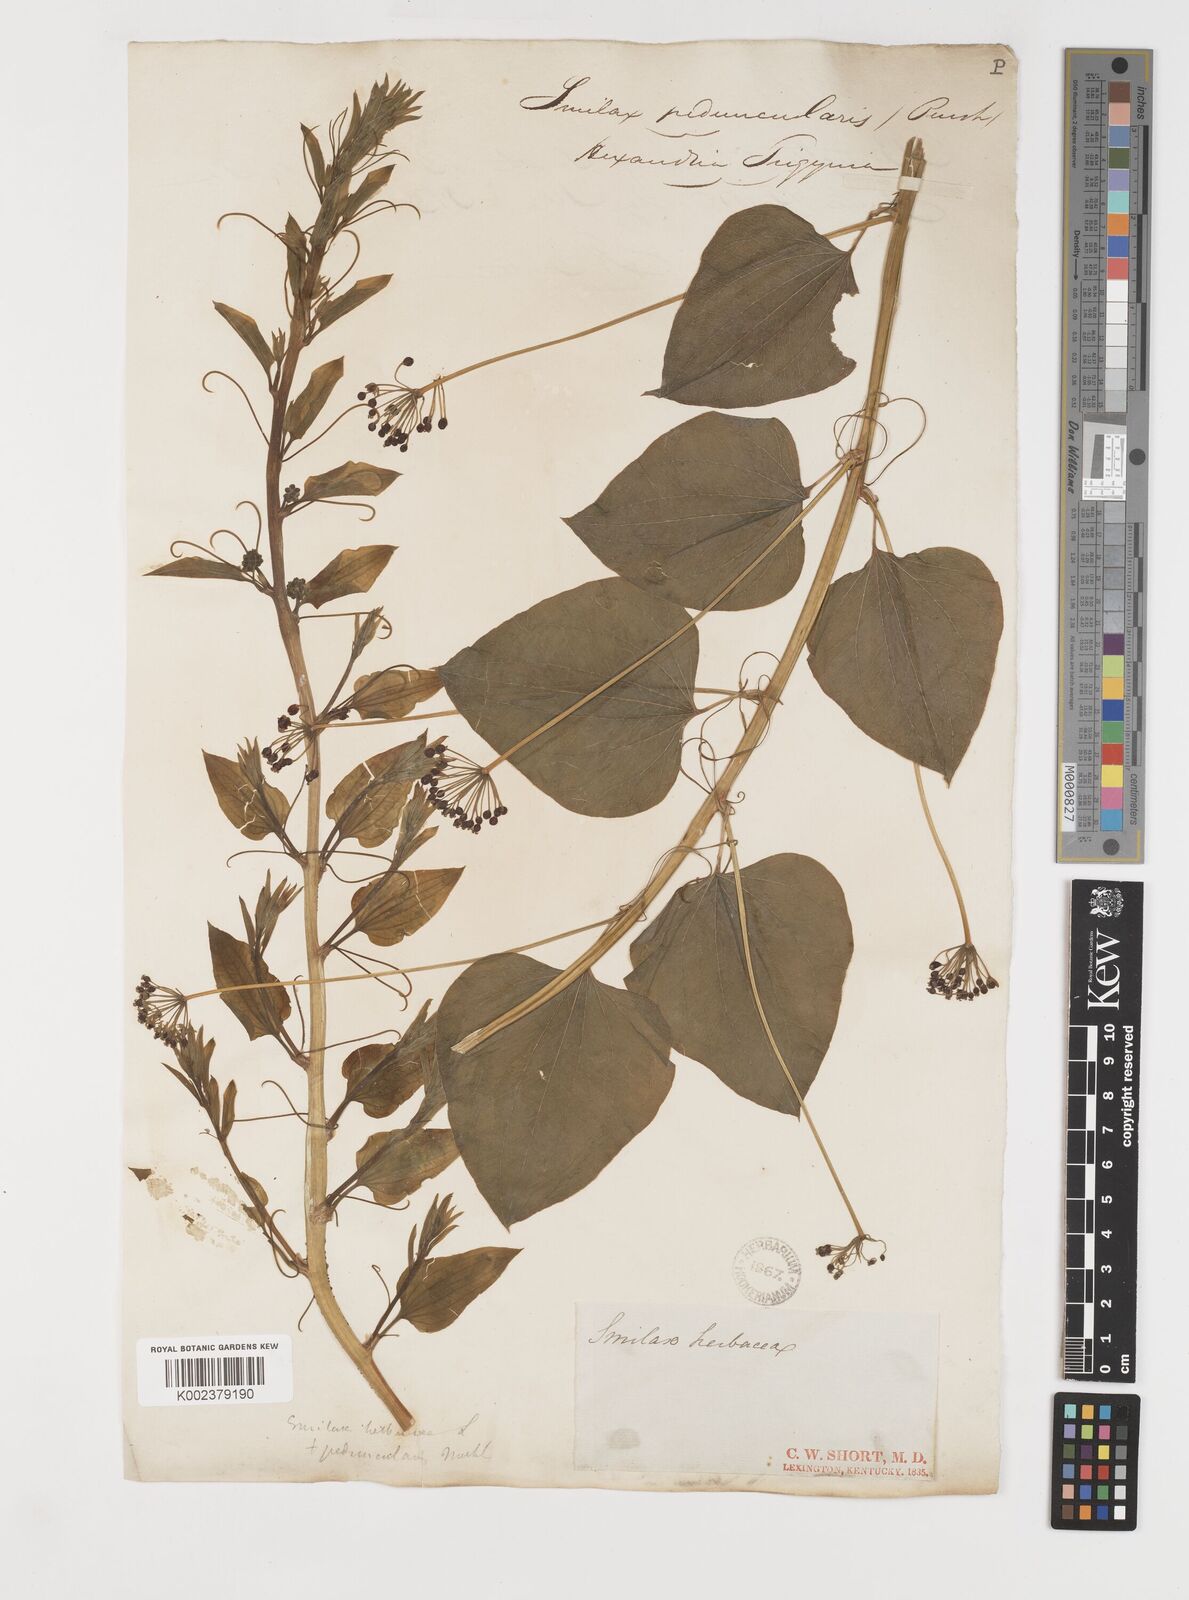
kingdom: Plantae
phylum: Tracheophyta
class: Liliopsida
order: Liliales
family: Smilacaceae
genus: Smilax
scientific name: Smilax
